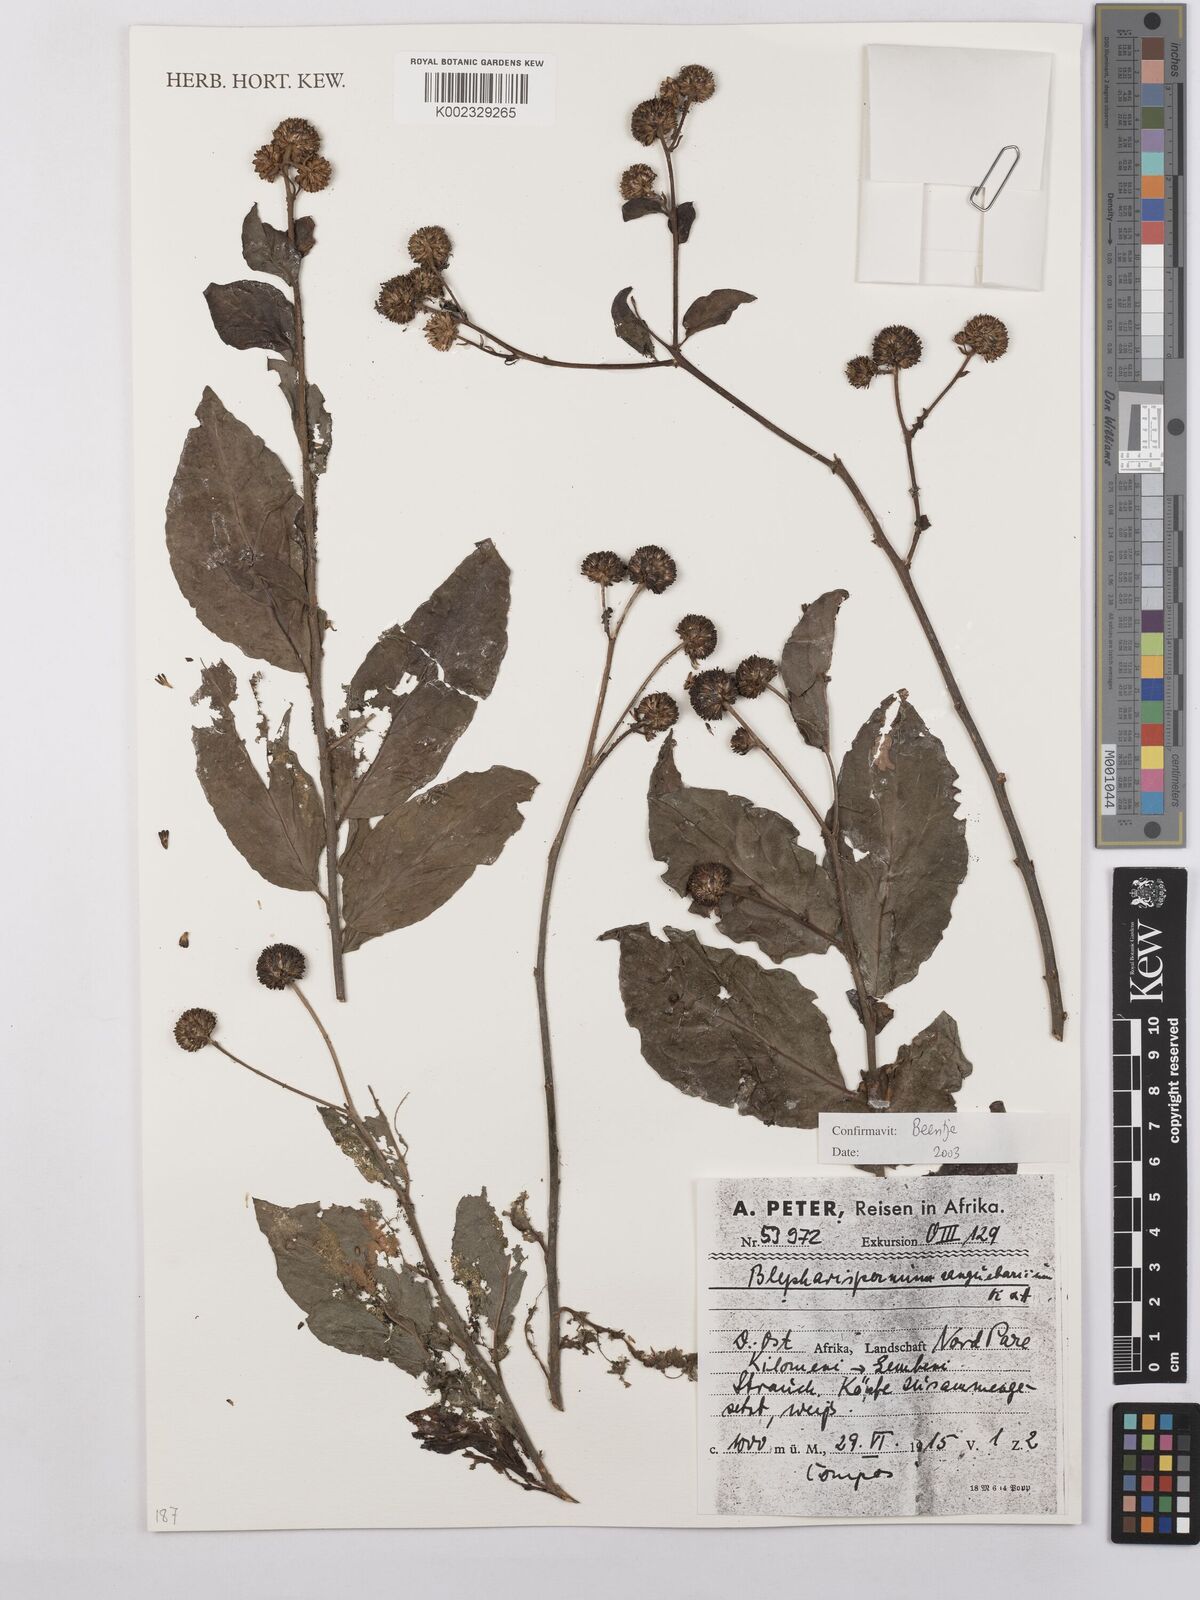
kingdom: Plantae
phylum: Tracheophyta
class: Magnoliopsida
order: Asterales
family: Asteraceae
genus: Blepharispermum
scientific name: Blepharispermum zanguebaricum
